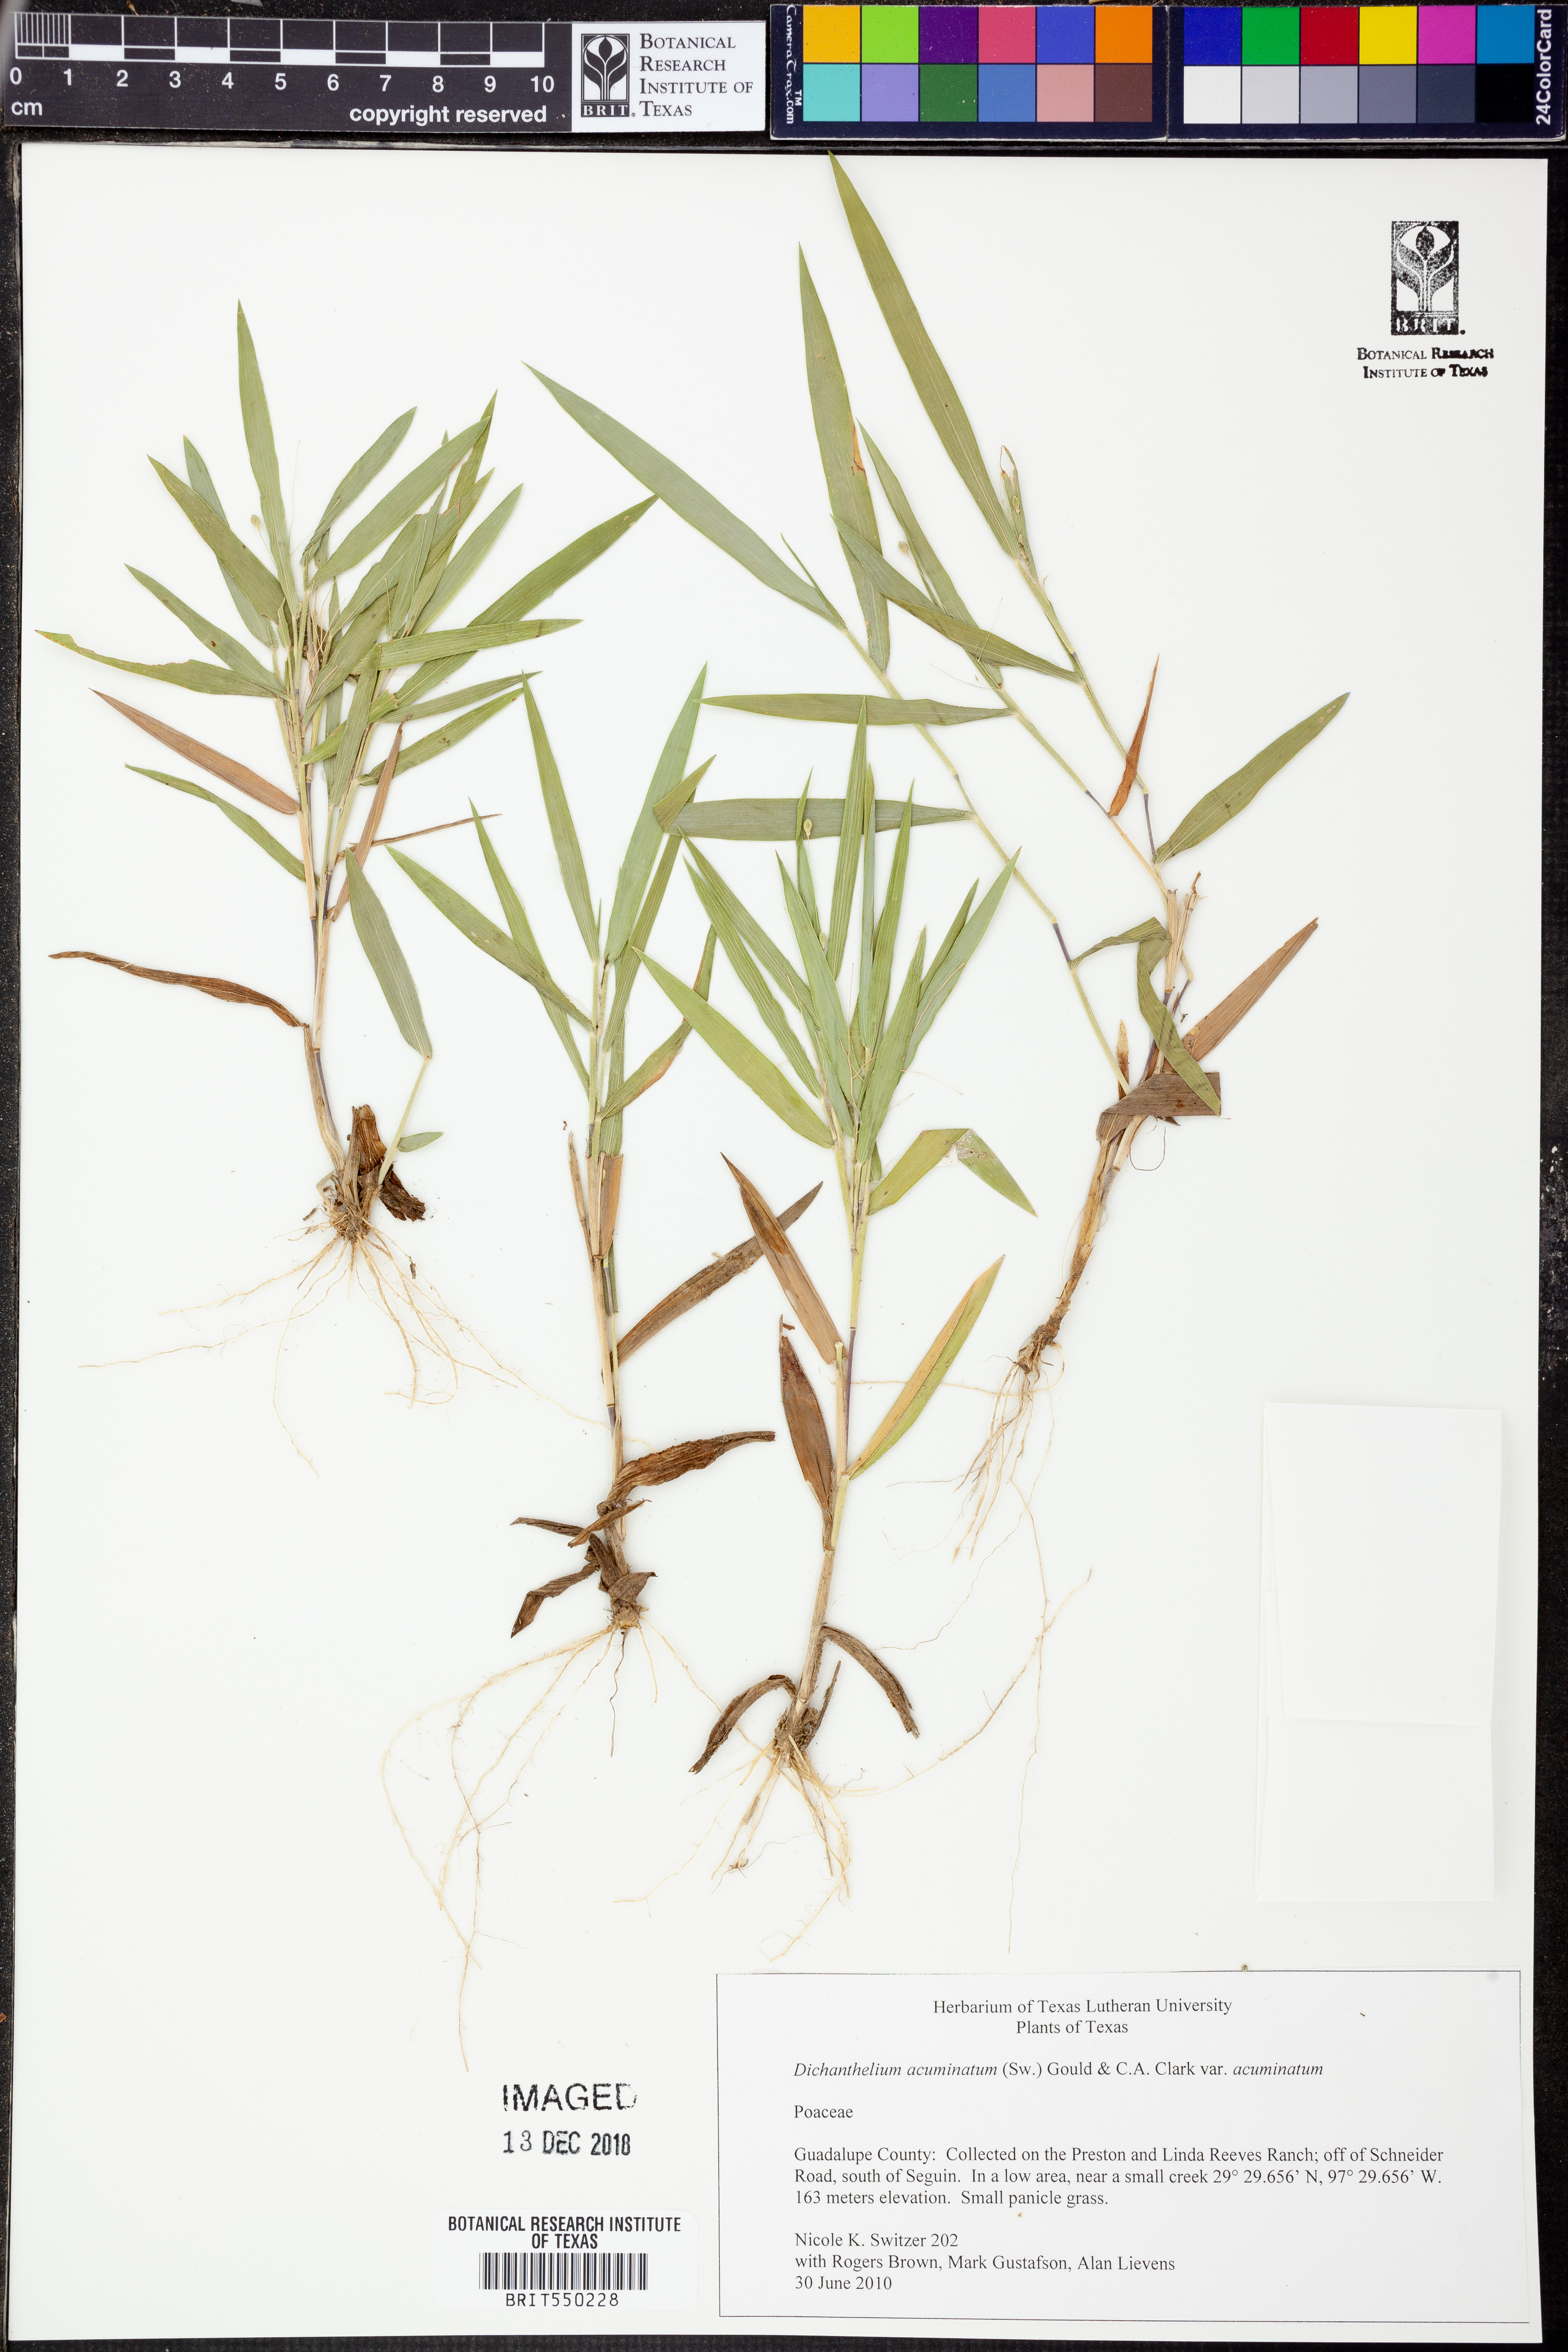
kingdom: Plantae
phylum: Tracheophyta
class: Liliopsida
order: Poales
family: Poaceae
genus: Dichanthelium
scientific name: Dichanthelium acuminatum
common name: Hairy panic grass
